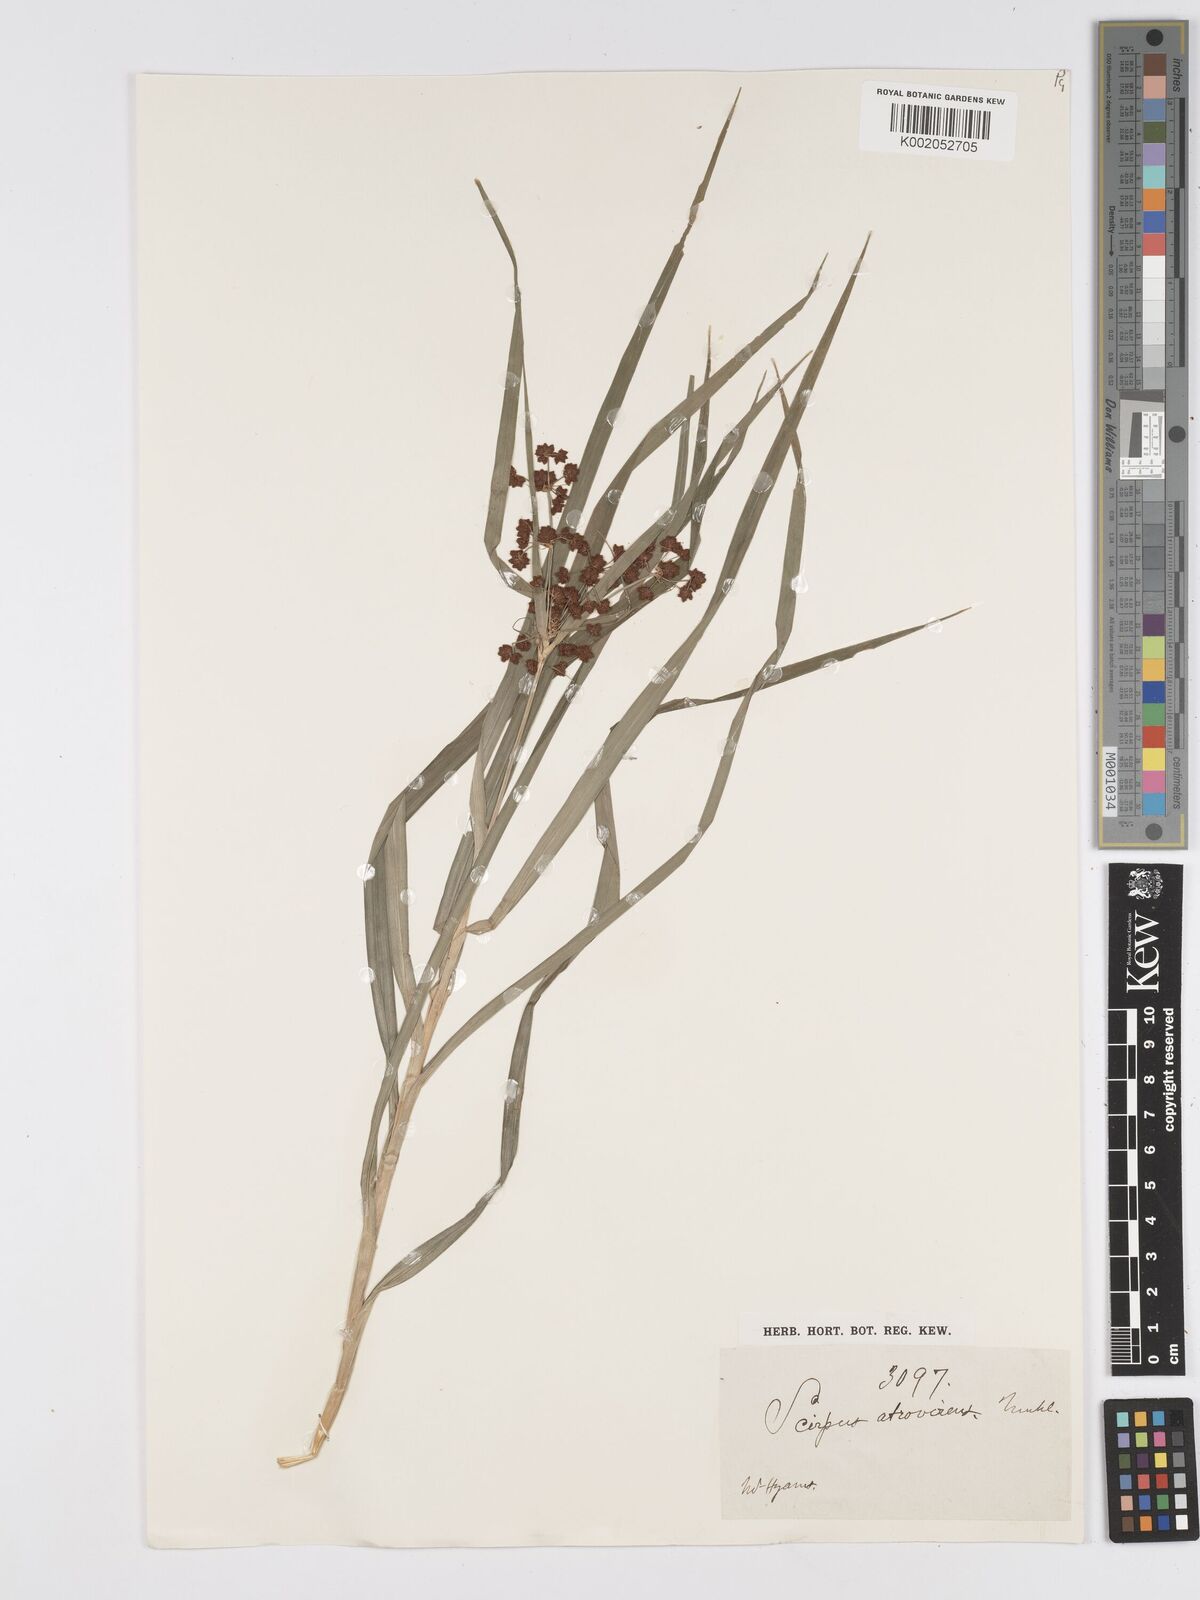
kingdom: Plantae
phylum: Tracheophyta
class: Liliopsida
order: Poales
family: Cyperaceae
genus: Scirpus
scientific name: Scirpus atrovirens
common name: Black bulrush
